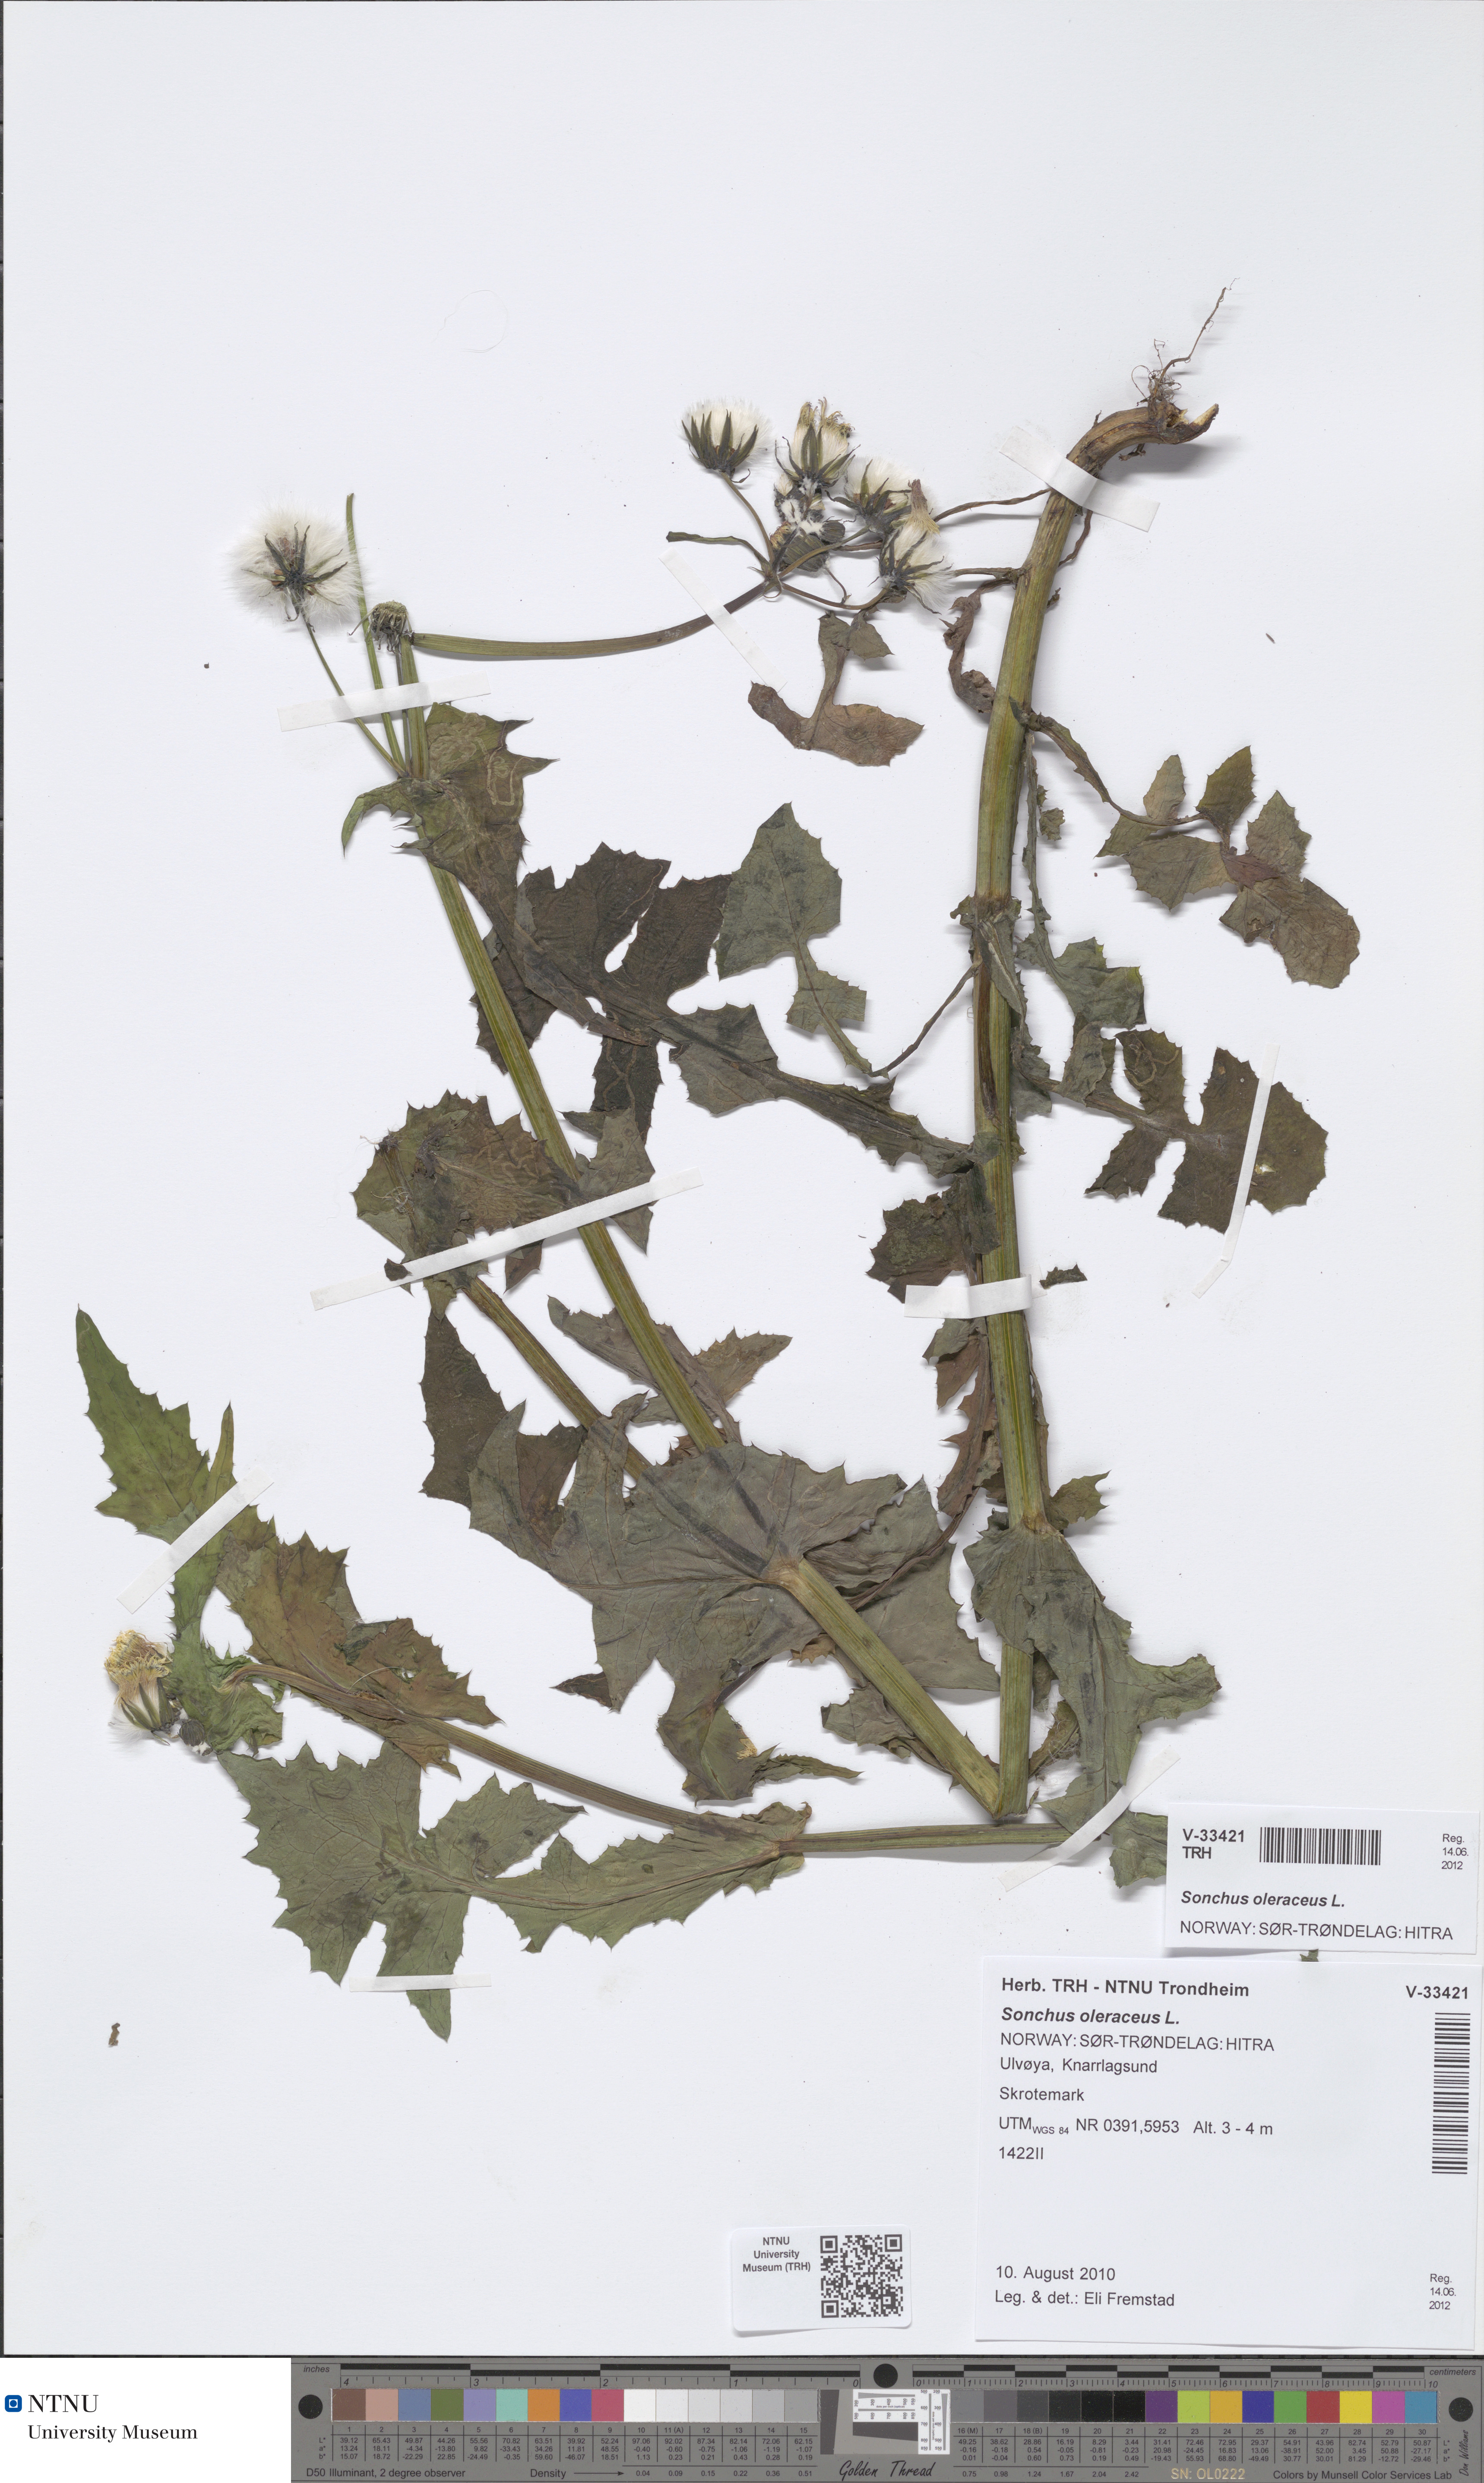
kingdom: Plantae
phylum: Tracheophyta
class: Magnoliopsida
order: Asterales
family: Asteraceae
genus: Sonchus
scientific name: Sonchus oleraceus
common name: Common sowthistle
